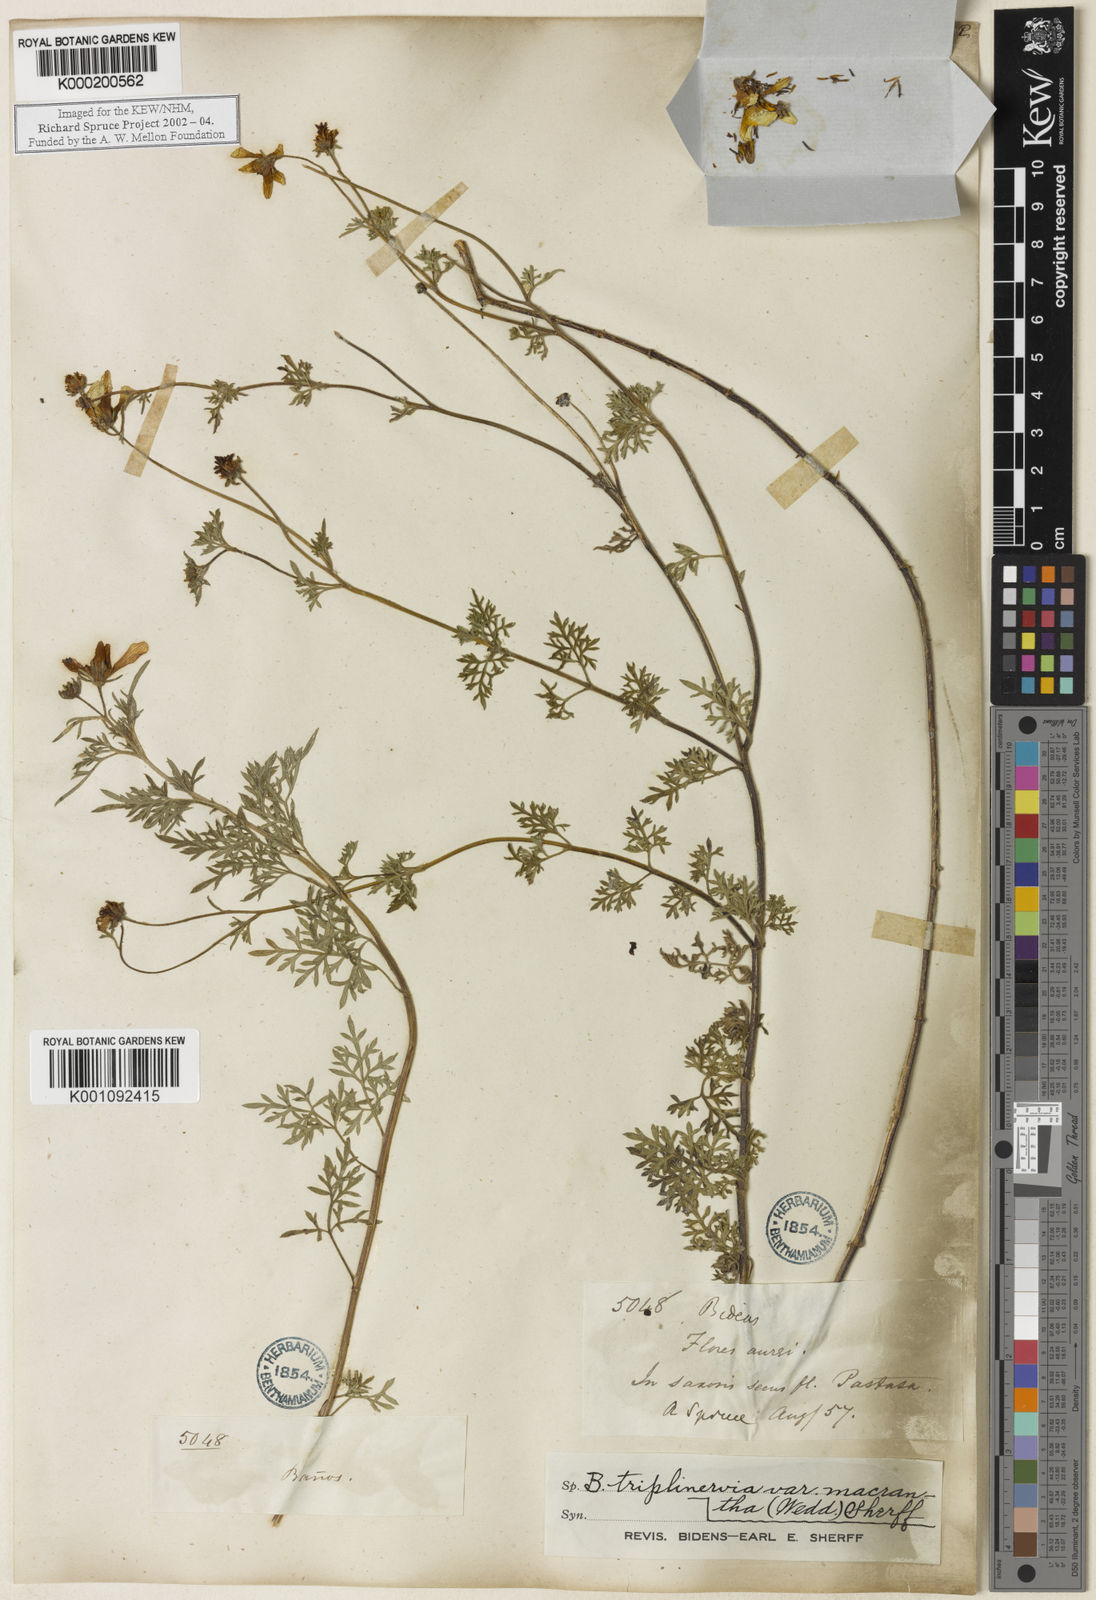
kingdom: Plantae
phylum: Tracheophyta
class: Magnoliopsida
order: Asterales
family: Asteraceae
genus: Bidens
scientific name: Bidens triplinervia
